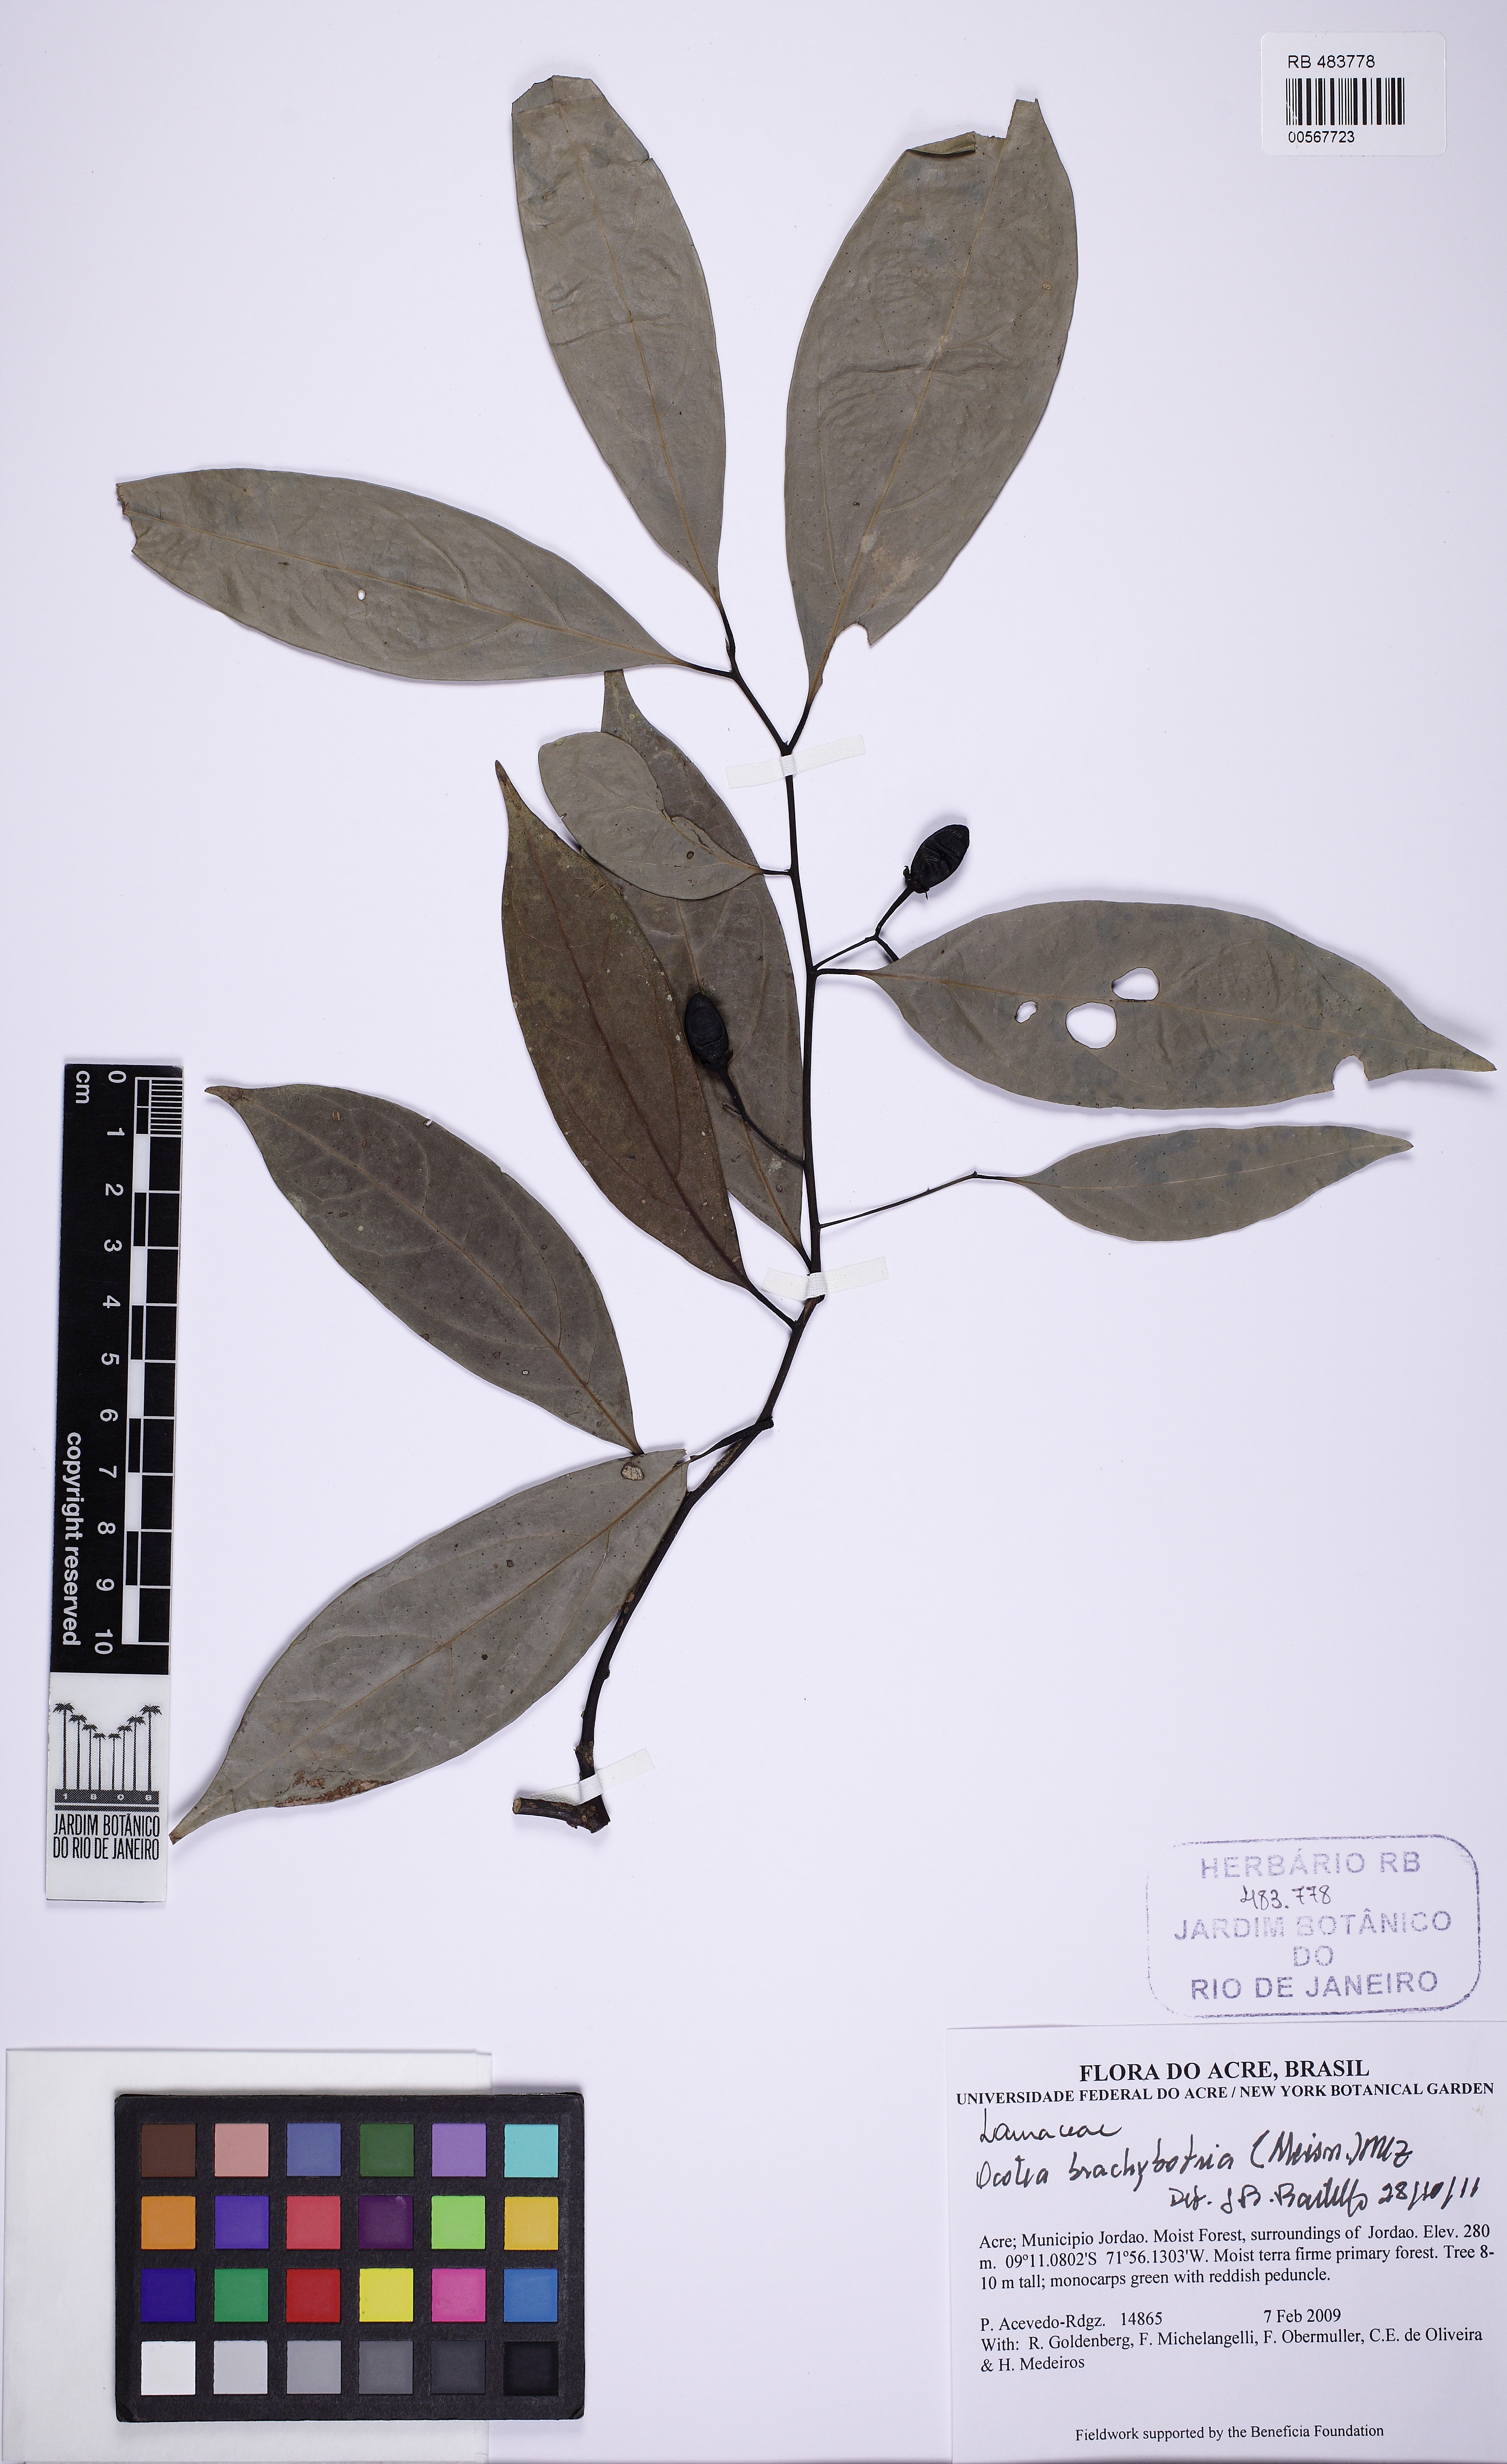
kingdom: Plantae
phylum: Tracheophyta
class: Magnoliopsida
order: Laurales
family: Lauraceae
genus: Ocotea
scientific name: Ocotea brachybotra
